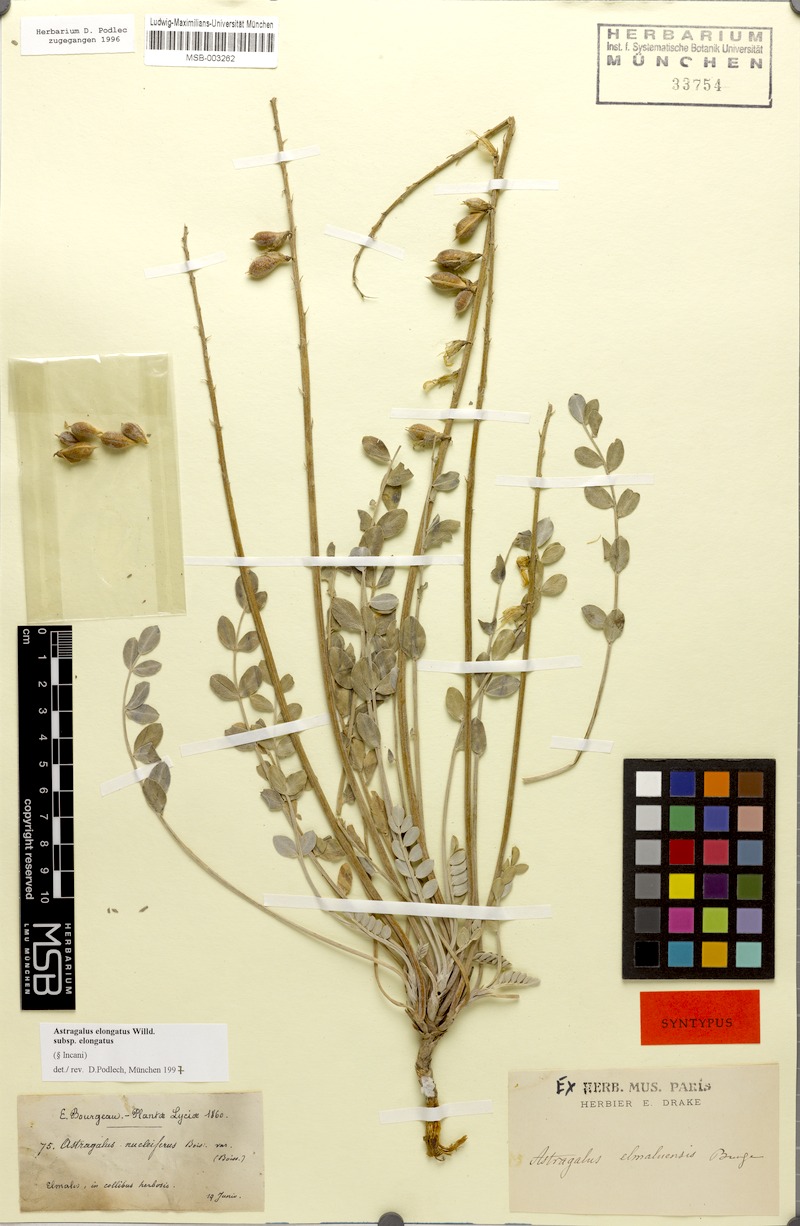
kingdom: Plantae
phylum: Tracheophyta
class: Magnoliopsida
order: Fabales
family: Fabaceae
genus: Astragalus
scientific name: Astragalus elongatus
